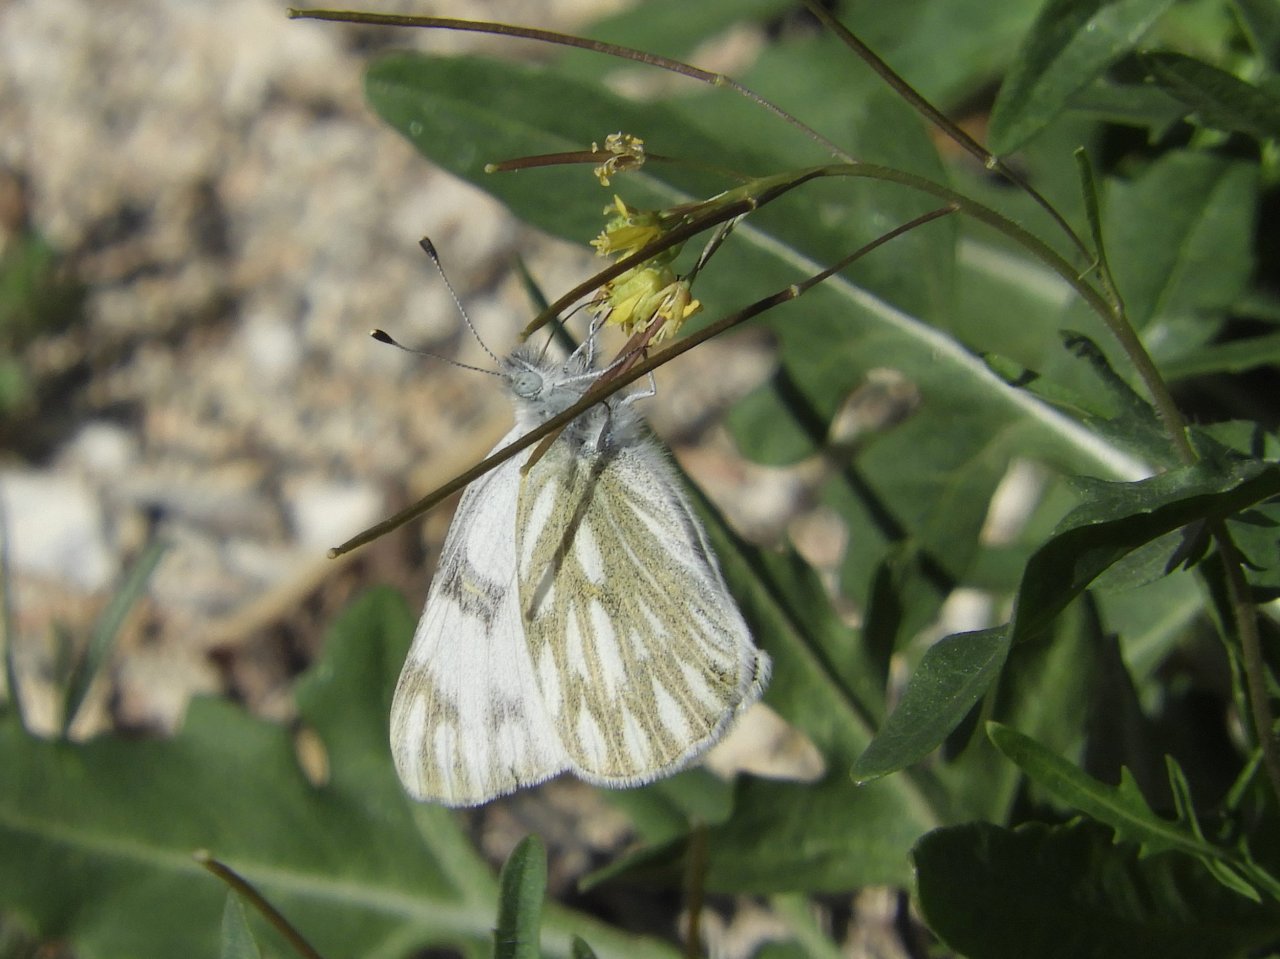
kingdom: Animalia
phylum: Arthropoda
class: Insecta
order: Lepidoptera
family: Pieridae
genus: Pontia
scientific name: Pontia protodice
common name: Checkered White
